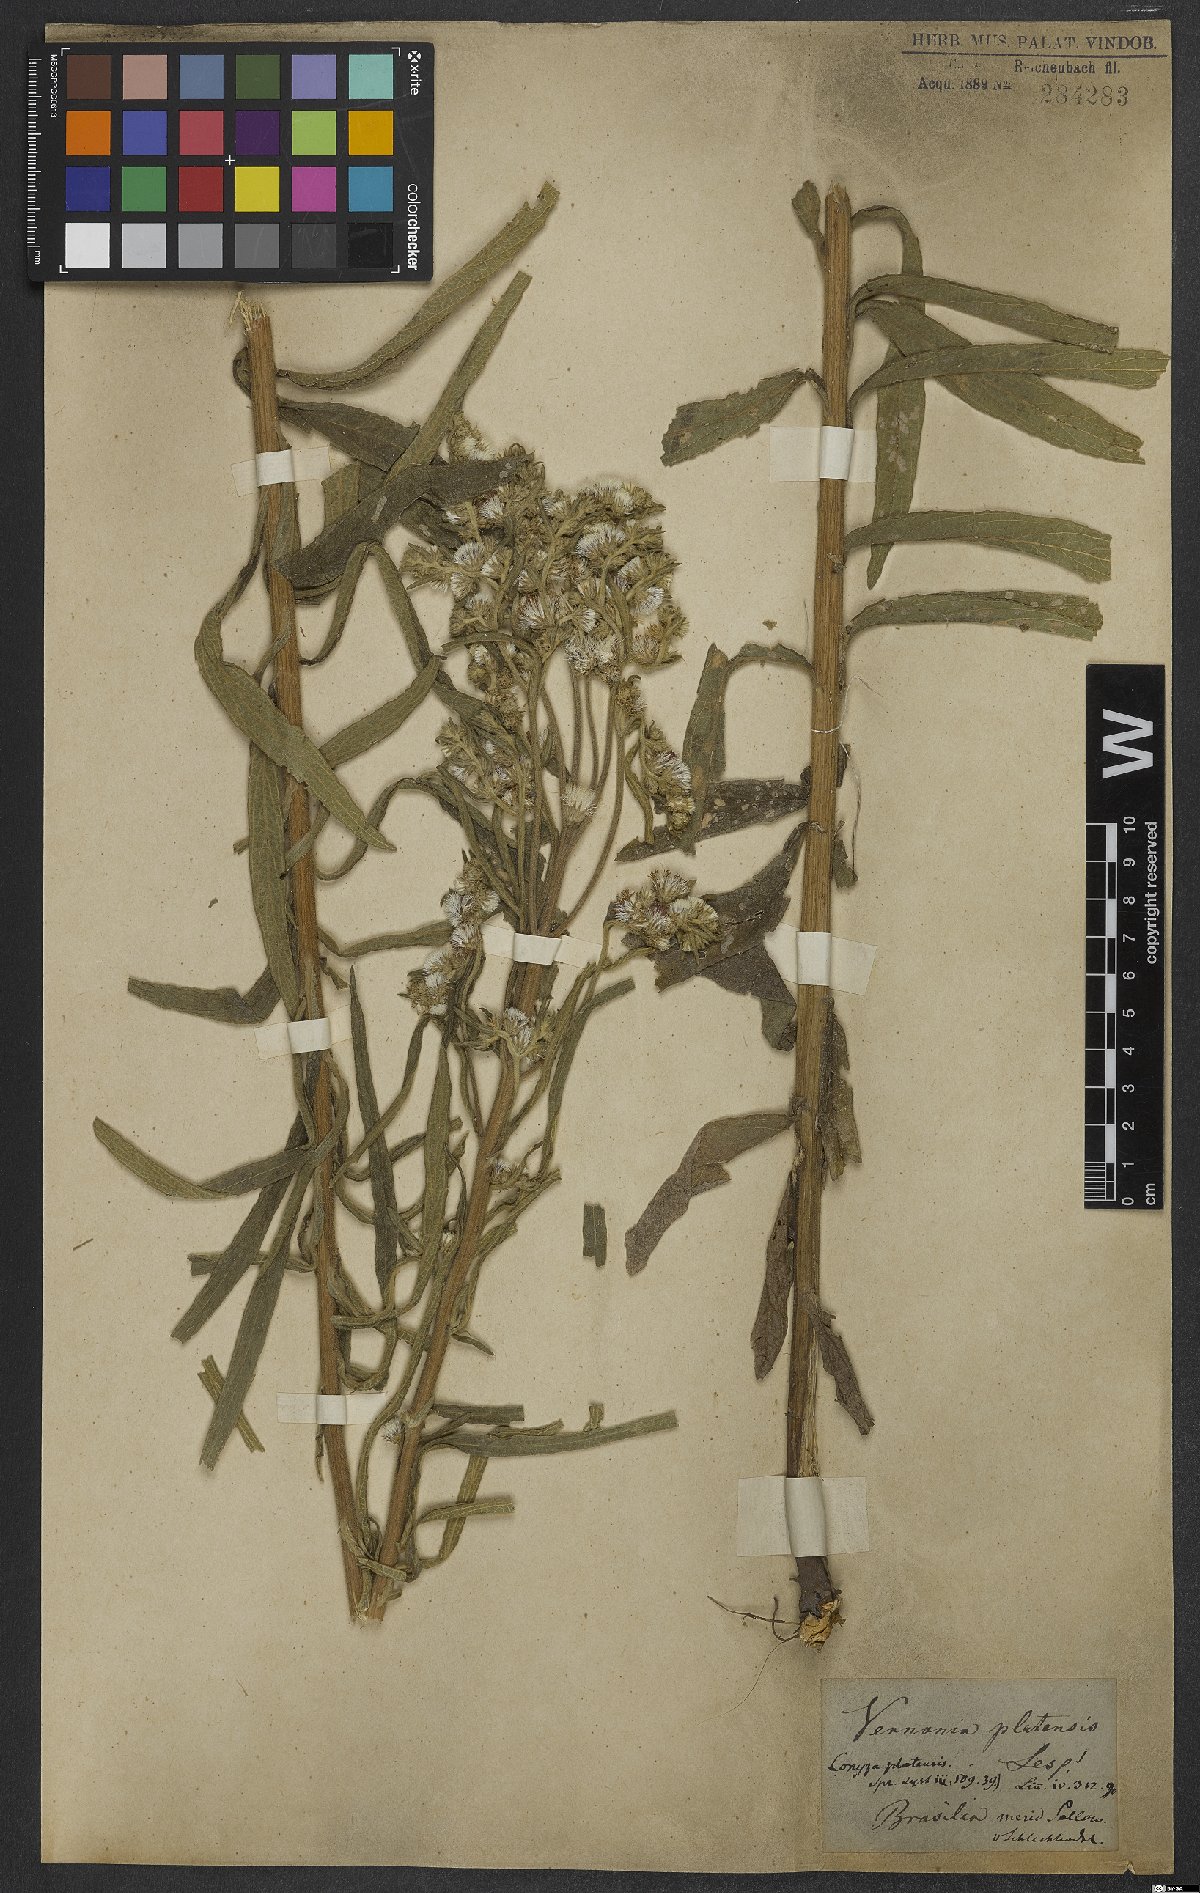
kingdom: Plantae
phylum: Tracheophyta
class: Magnoliopsida
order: Asterales
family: Asteraceae
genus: Chrysolaena
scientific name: Chrysolaena platensis
